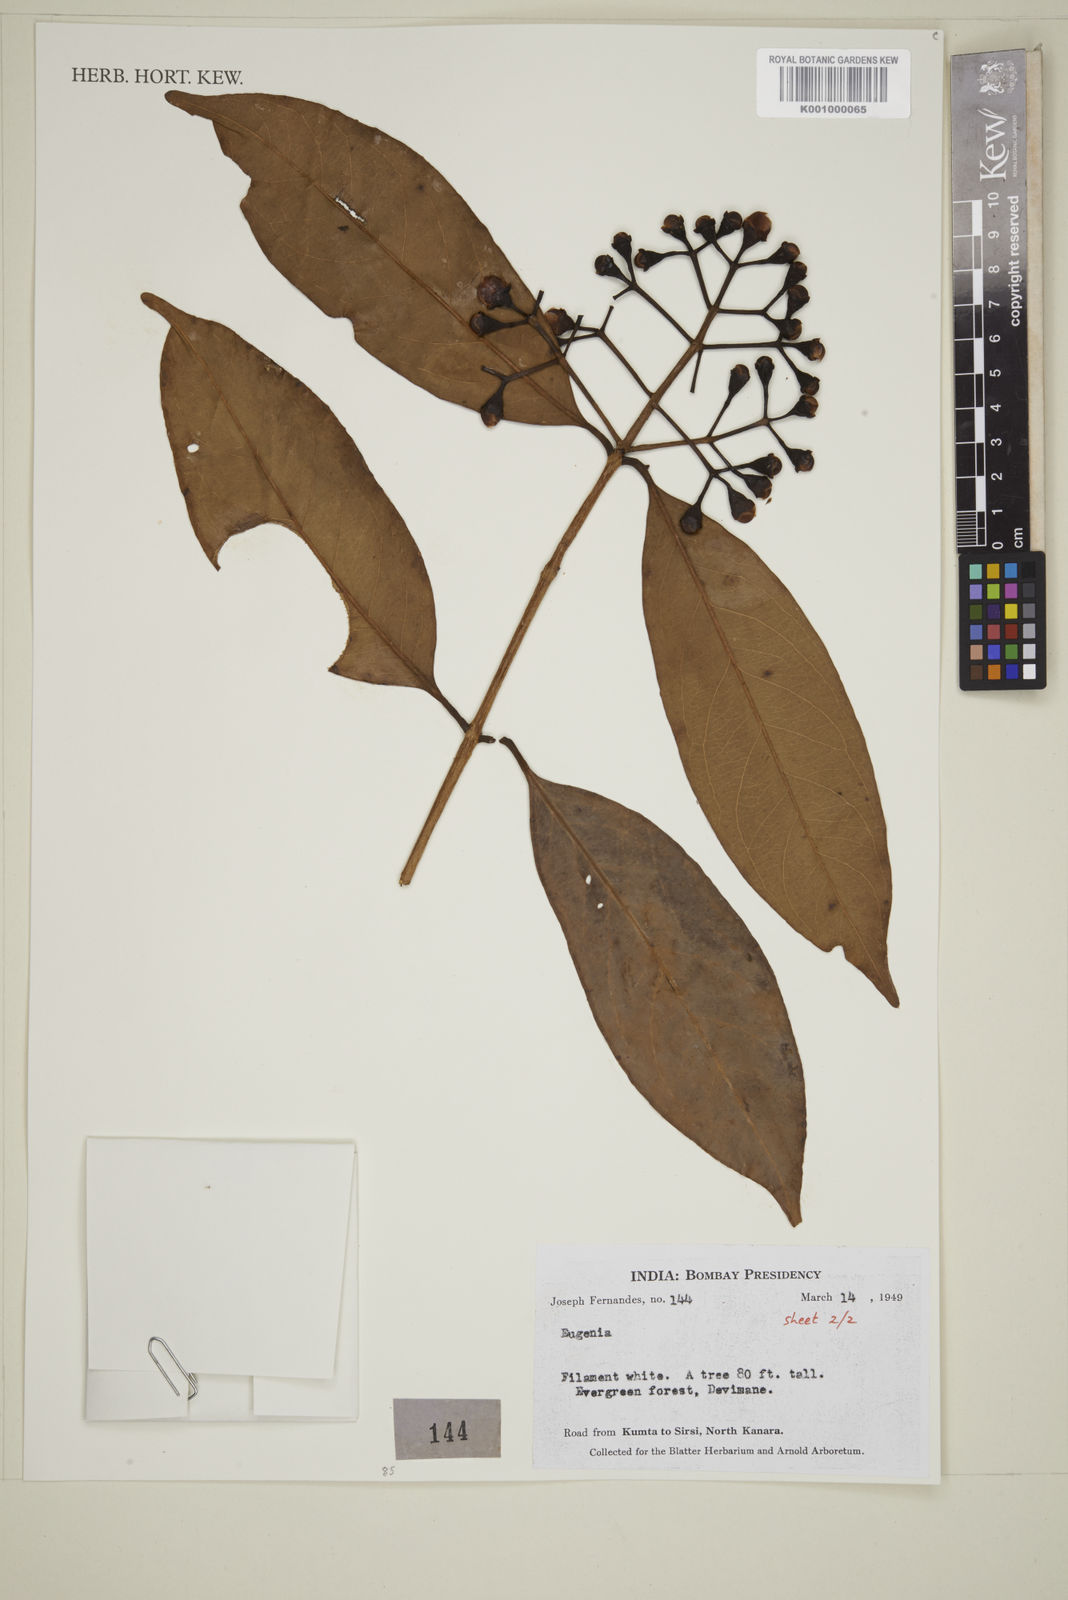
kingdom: Plantae
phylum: Tracheophyta
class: Magnoliopsida
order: Myrtales
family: Myrtaceae
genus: Eugenia
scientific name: Eugenia
